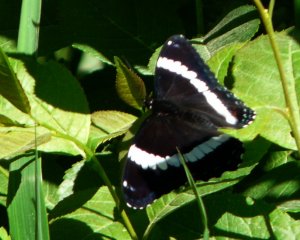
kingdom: Animalia
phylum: Arthropoda
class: Insecta
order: Lepidoptera
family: Nymphalidae
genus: Limenitis
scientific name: Limenitis arthemis
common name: Red-spotted Admiral
